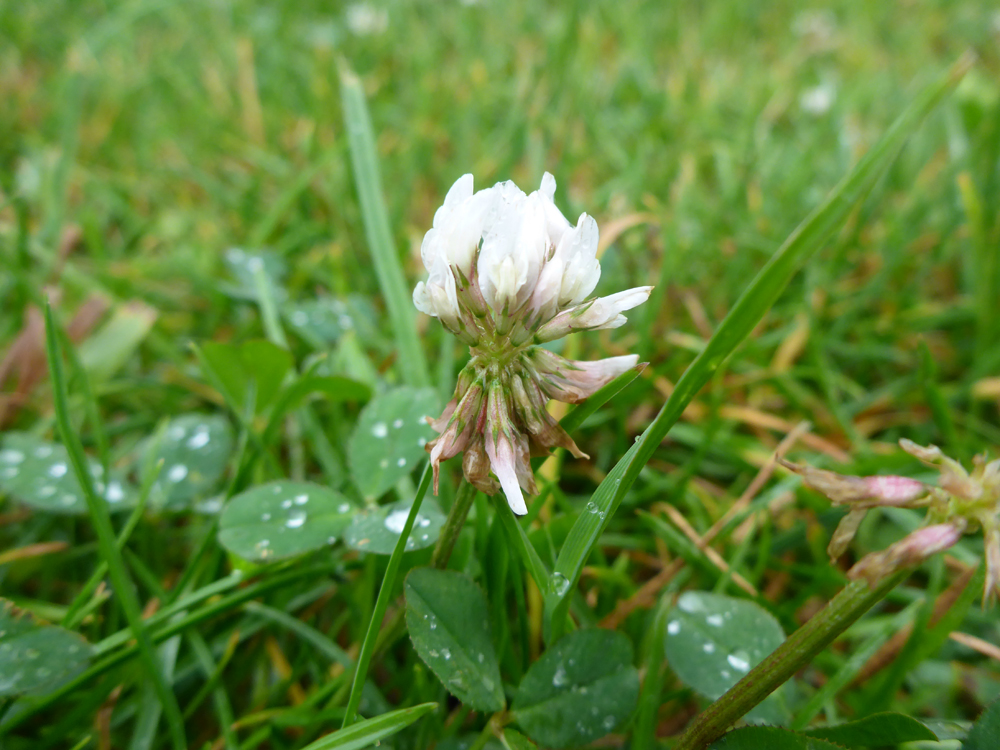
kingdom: Plantae
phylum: Tracheophyta
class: Magnoliopsida
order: Fabales
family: Fabaceae
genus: Trifolium
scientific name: Trifolium repens
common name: White clover
